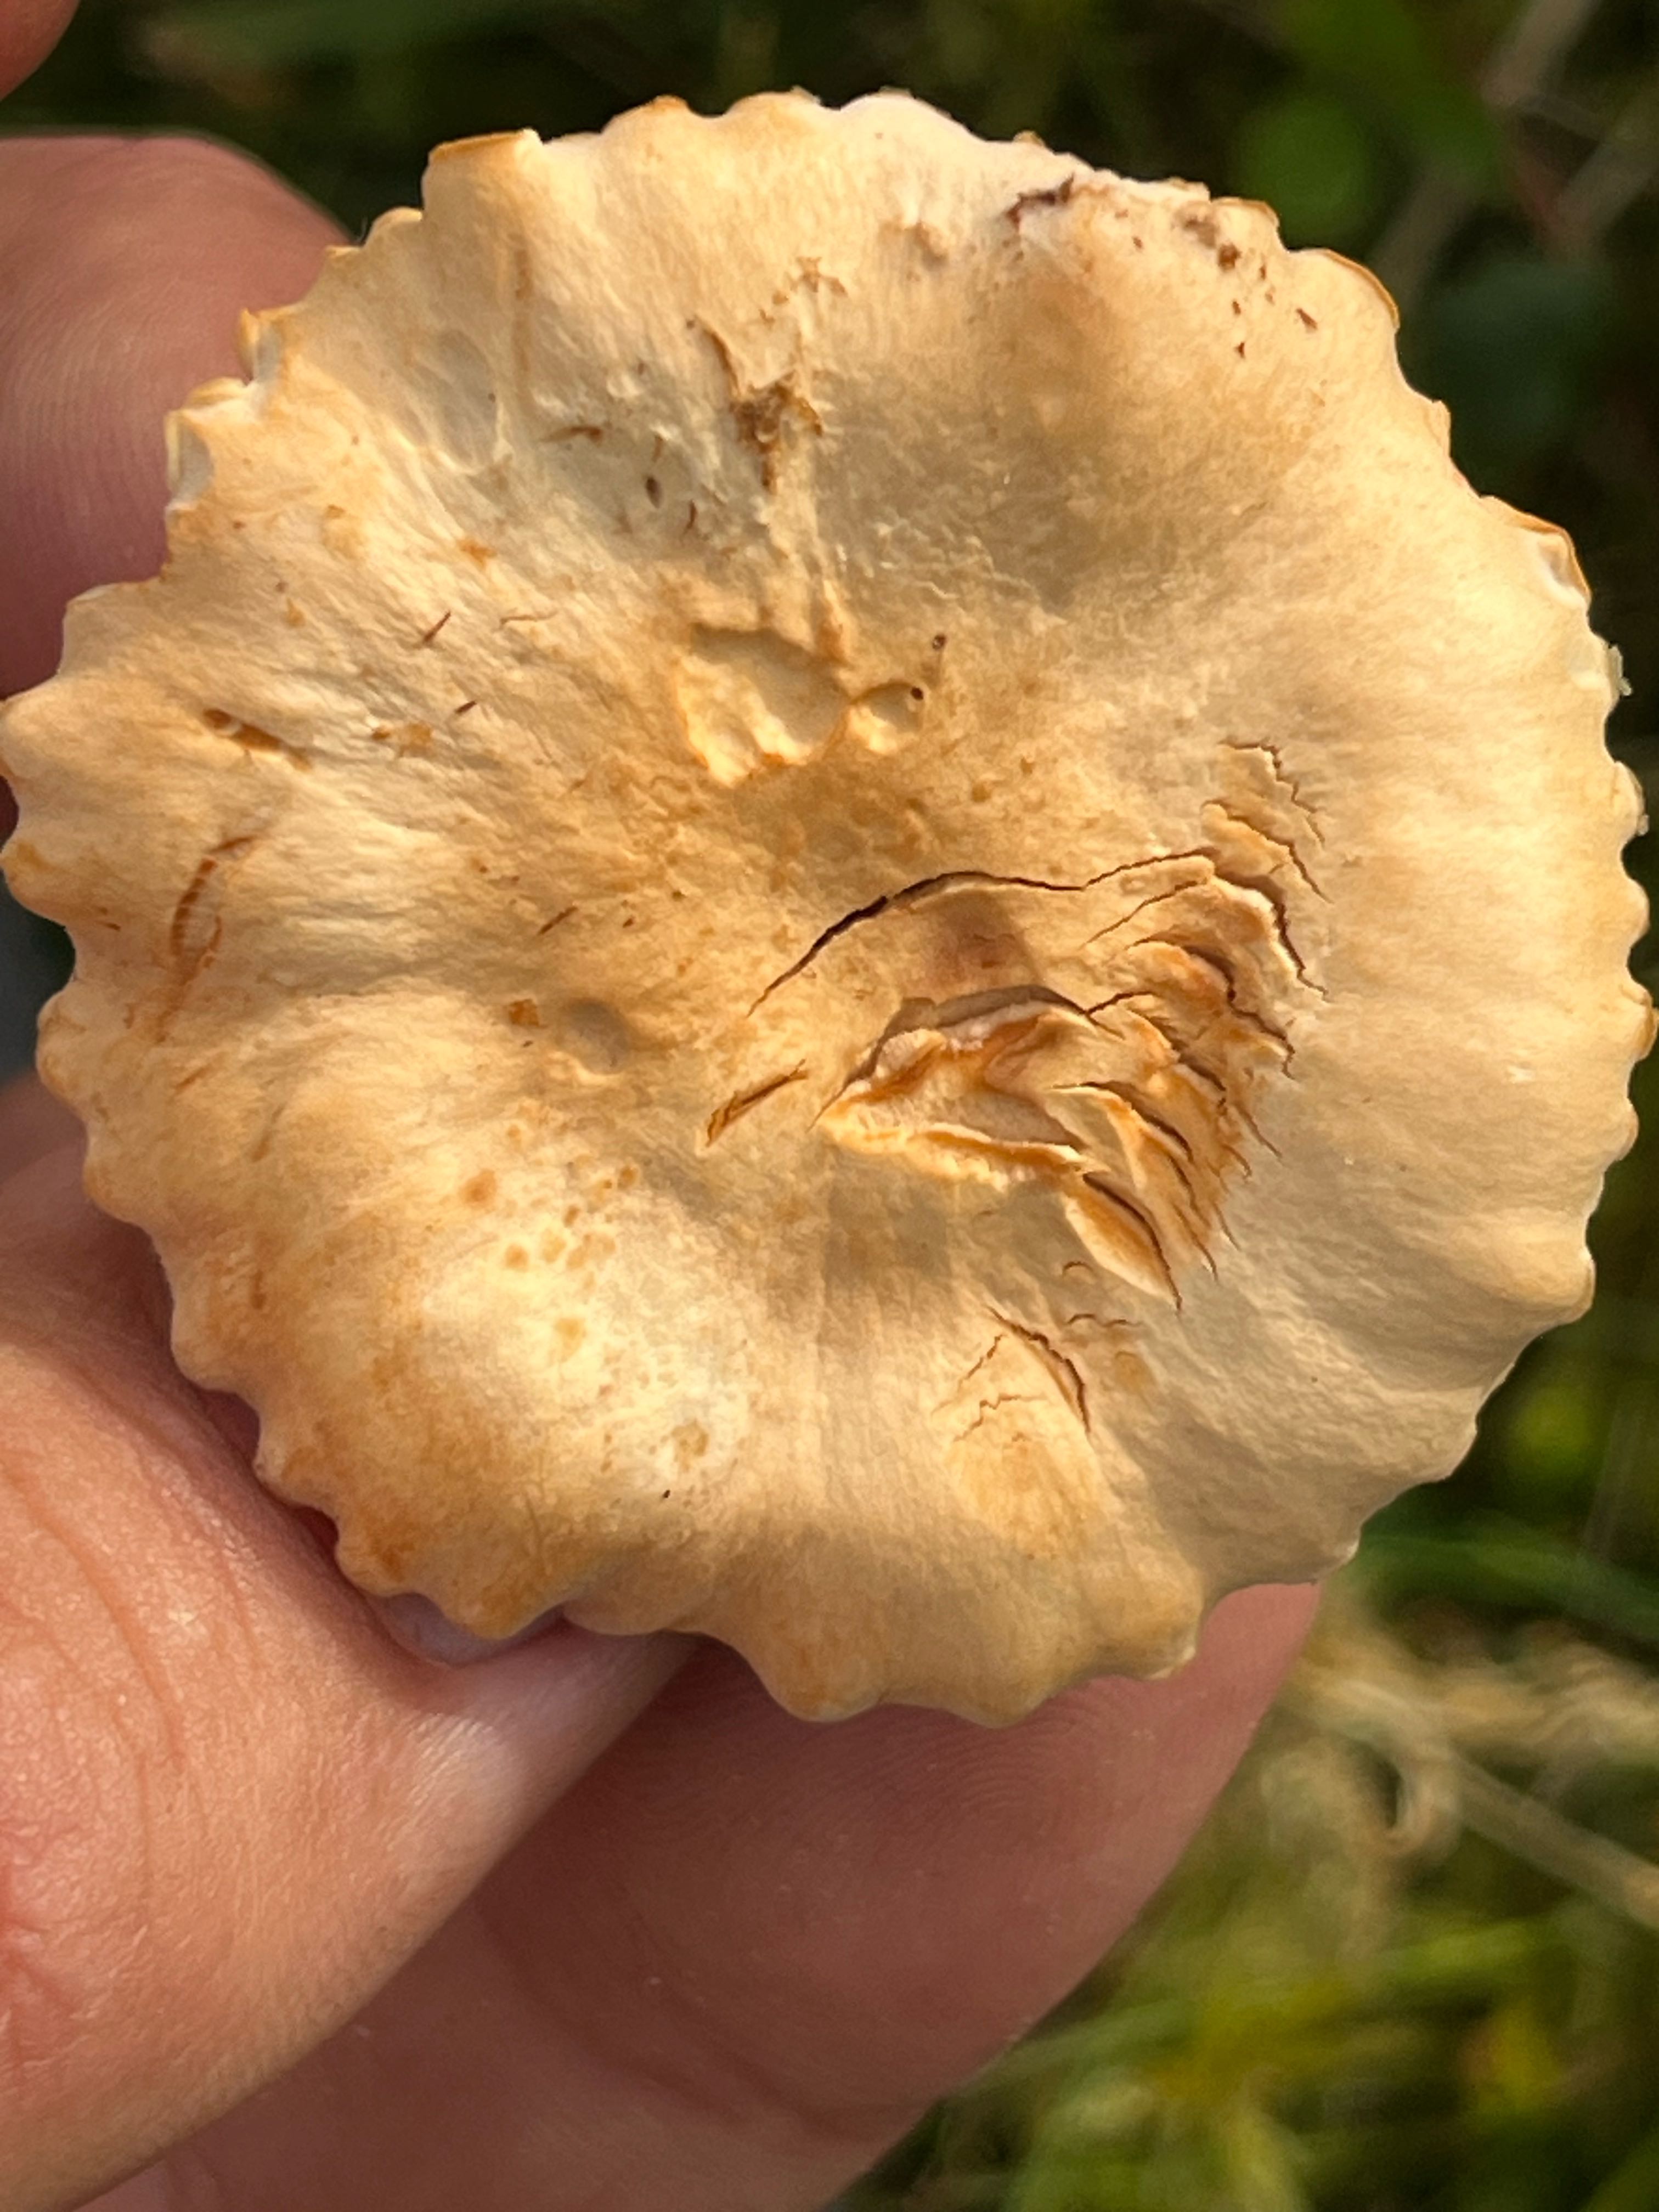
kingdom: Fungi
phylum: Basidiomycota
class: Agaricomycetes
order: Agaricales
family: Hygrophoraceae
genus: Cuphophyllus
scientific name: Cuphophyllus pratensis
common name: eng-vokshat
